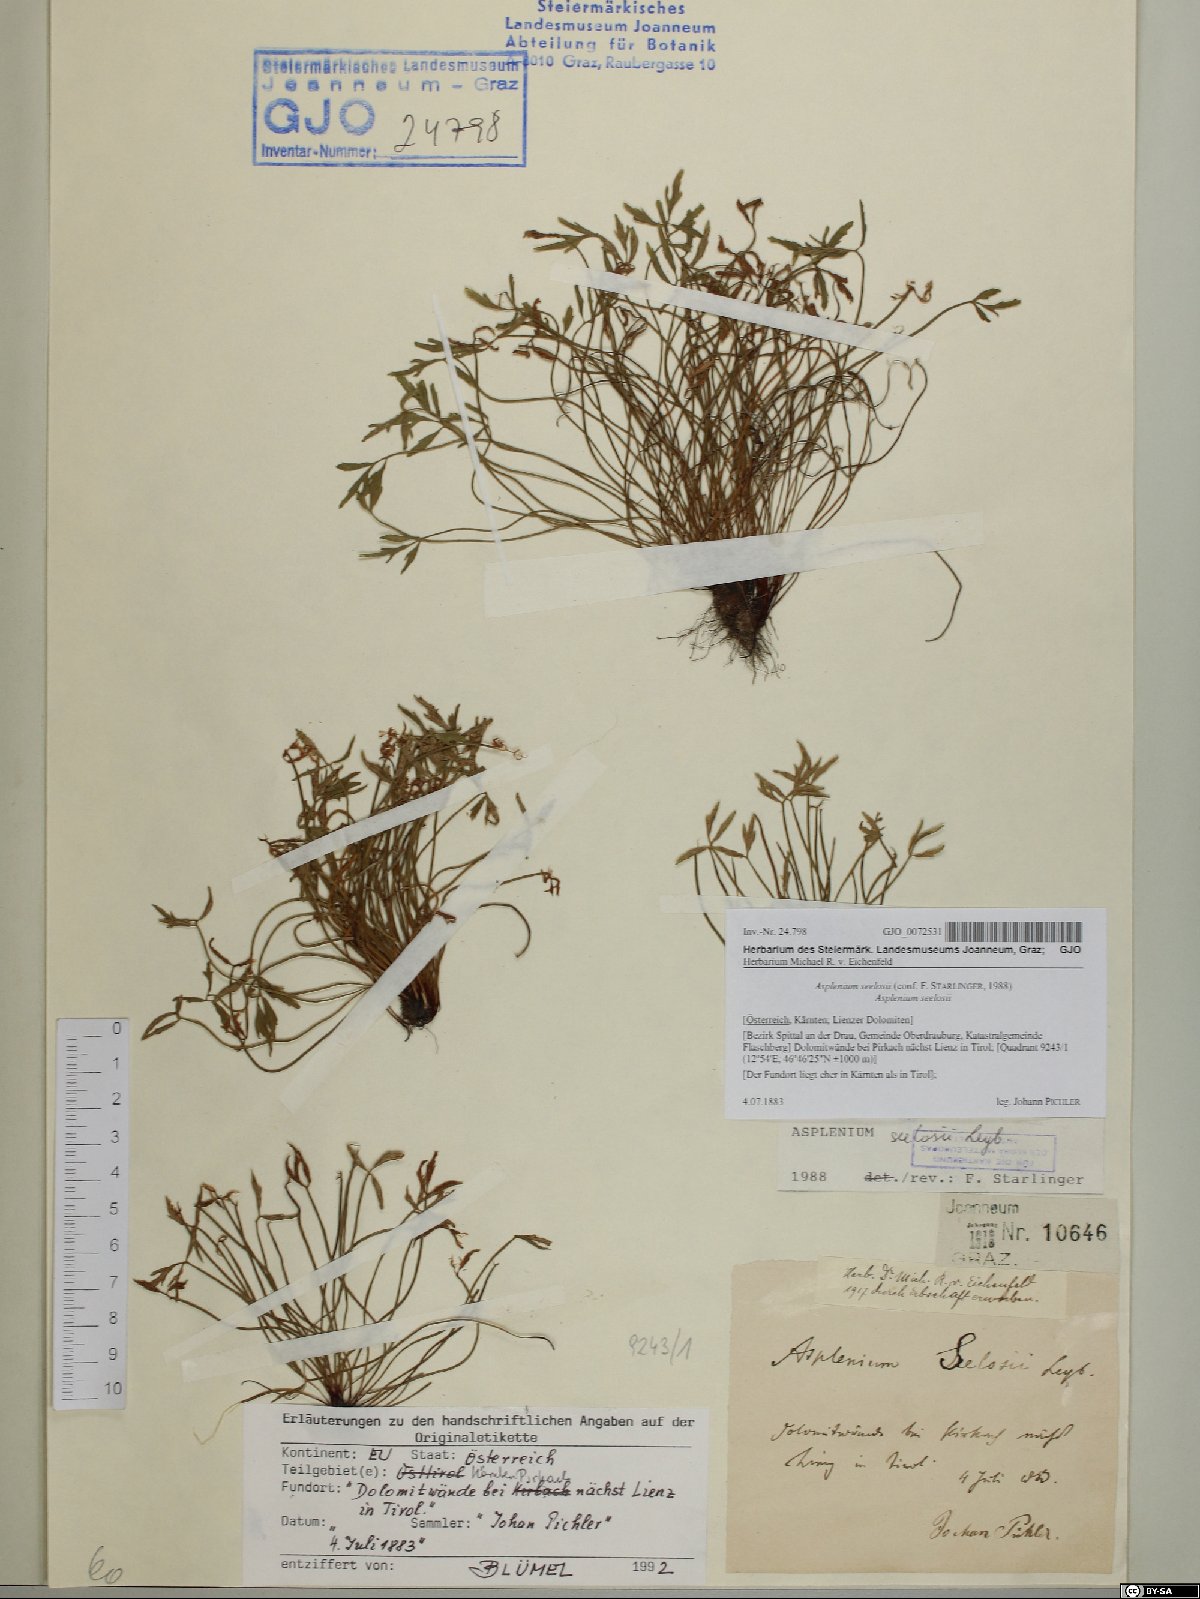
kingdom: Plantae
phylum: Tracheophyta
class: Polypodiopsida
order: Polypodiales
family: Aspleniaceae
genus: Asplenium
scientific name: Asplenium seelosii
